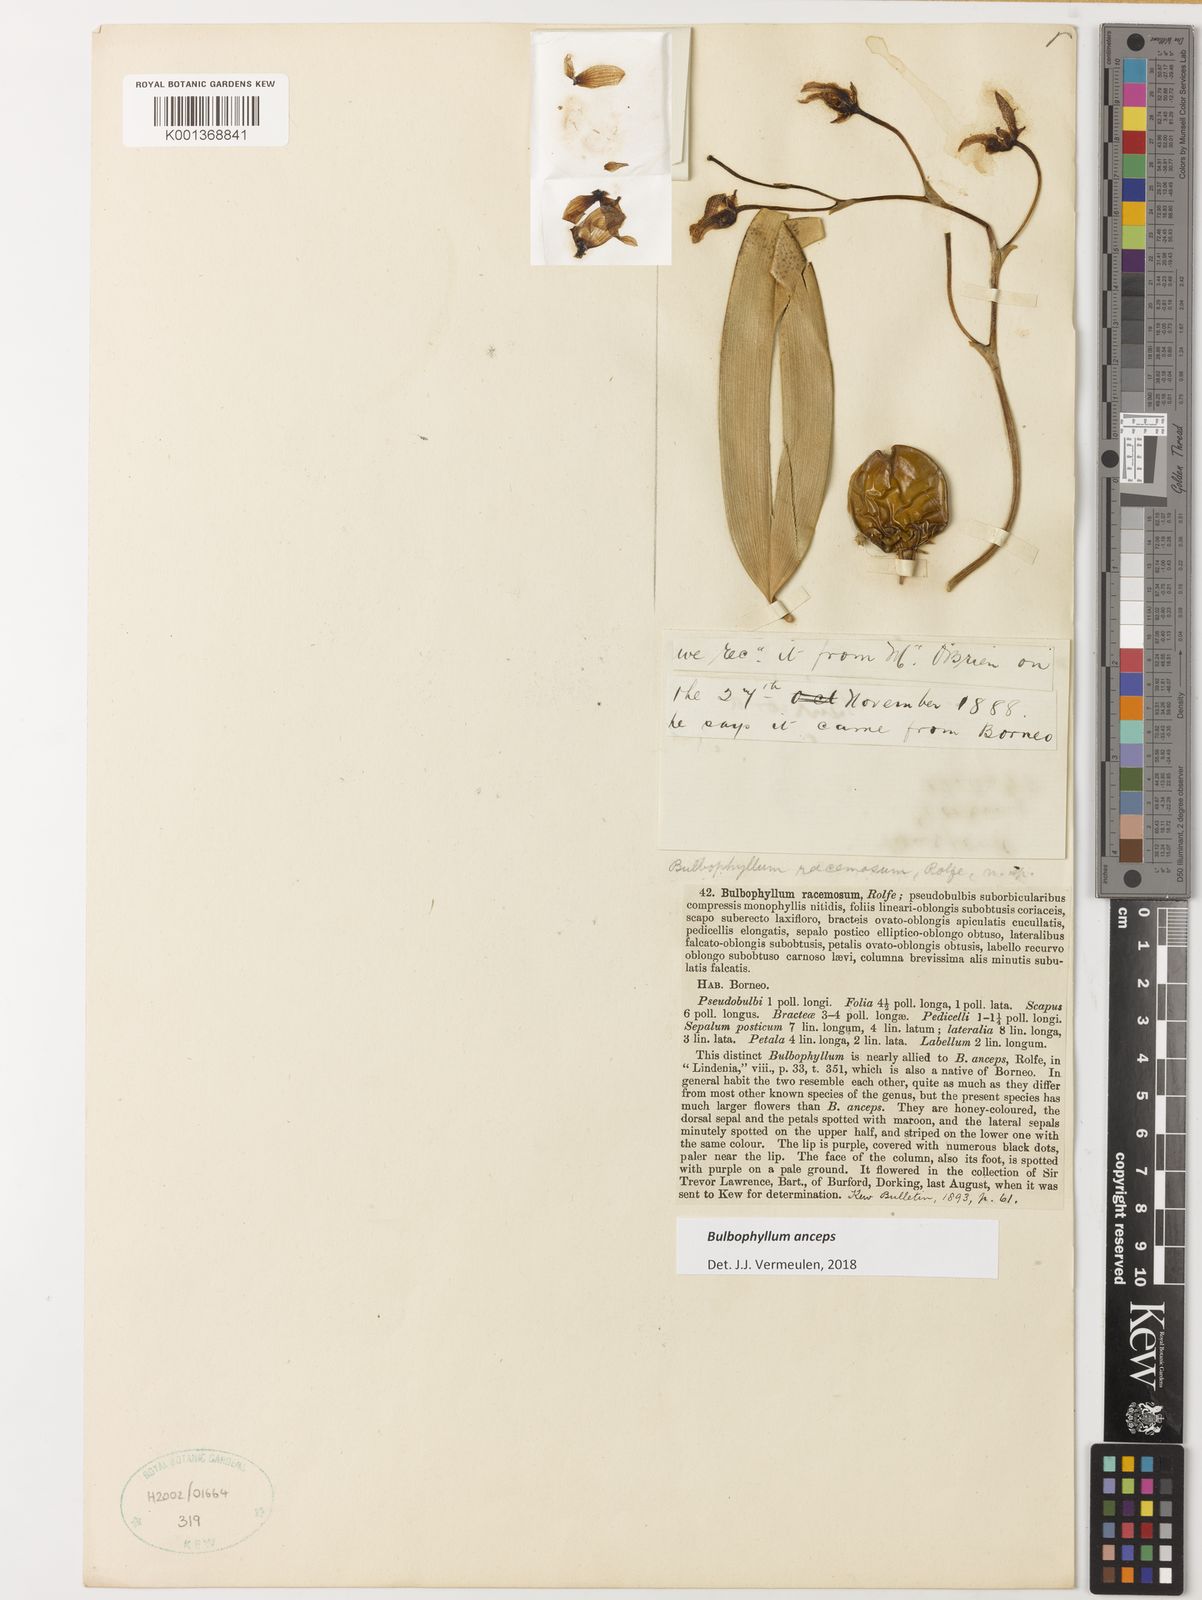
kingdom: Plantae
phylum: Tracheophyta
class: Liliopsida
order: Asparagales
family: Orchidaceae
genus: Bulbophyllum
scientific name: Bulbophyllum anceps
